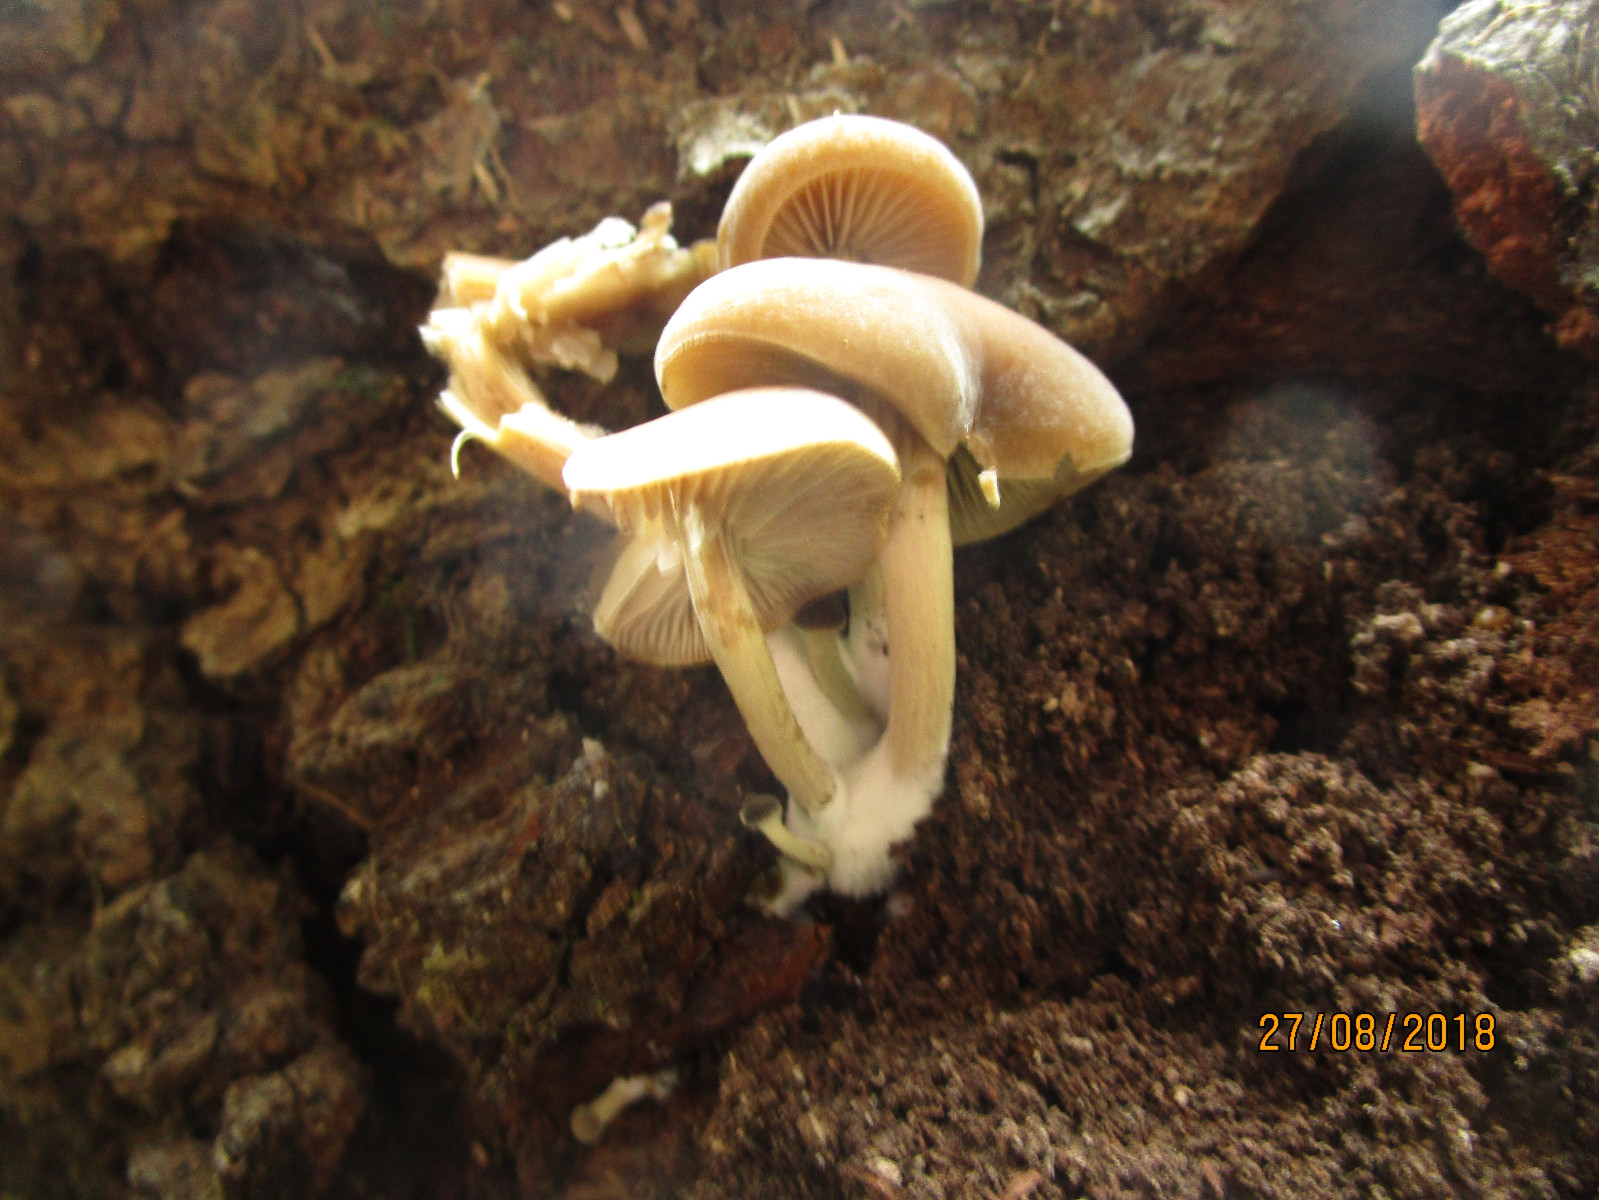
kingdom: Fungi
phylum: Basidiomycota
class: Agaricomycetes
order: Agaricales
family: Crepidotaceae
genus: Simocybe
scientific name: Simocybe sumptuosa
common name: stor skyggehat
